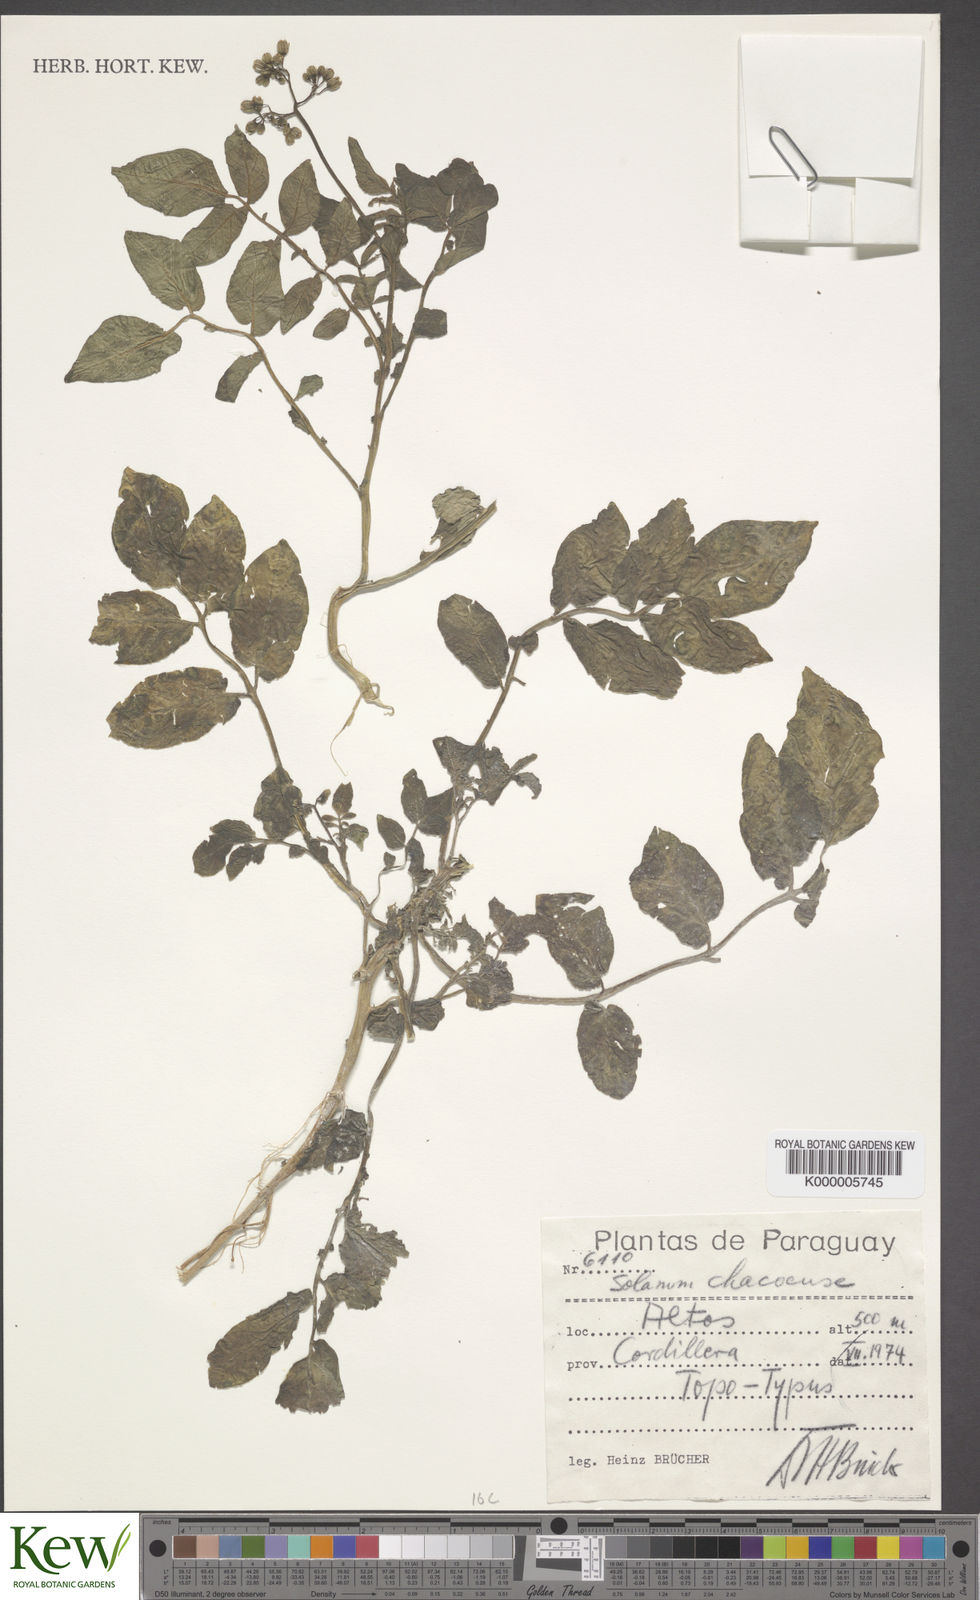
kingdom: Plantae
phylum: Tracheophyta
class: Magnoliopsida
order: Solanales
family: Solanaceae
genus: Solanum
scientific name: Solanum chacoense
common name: Chaco potato
